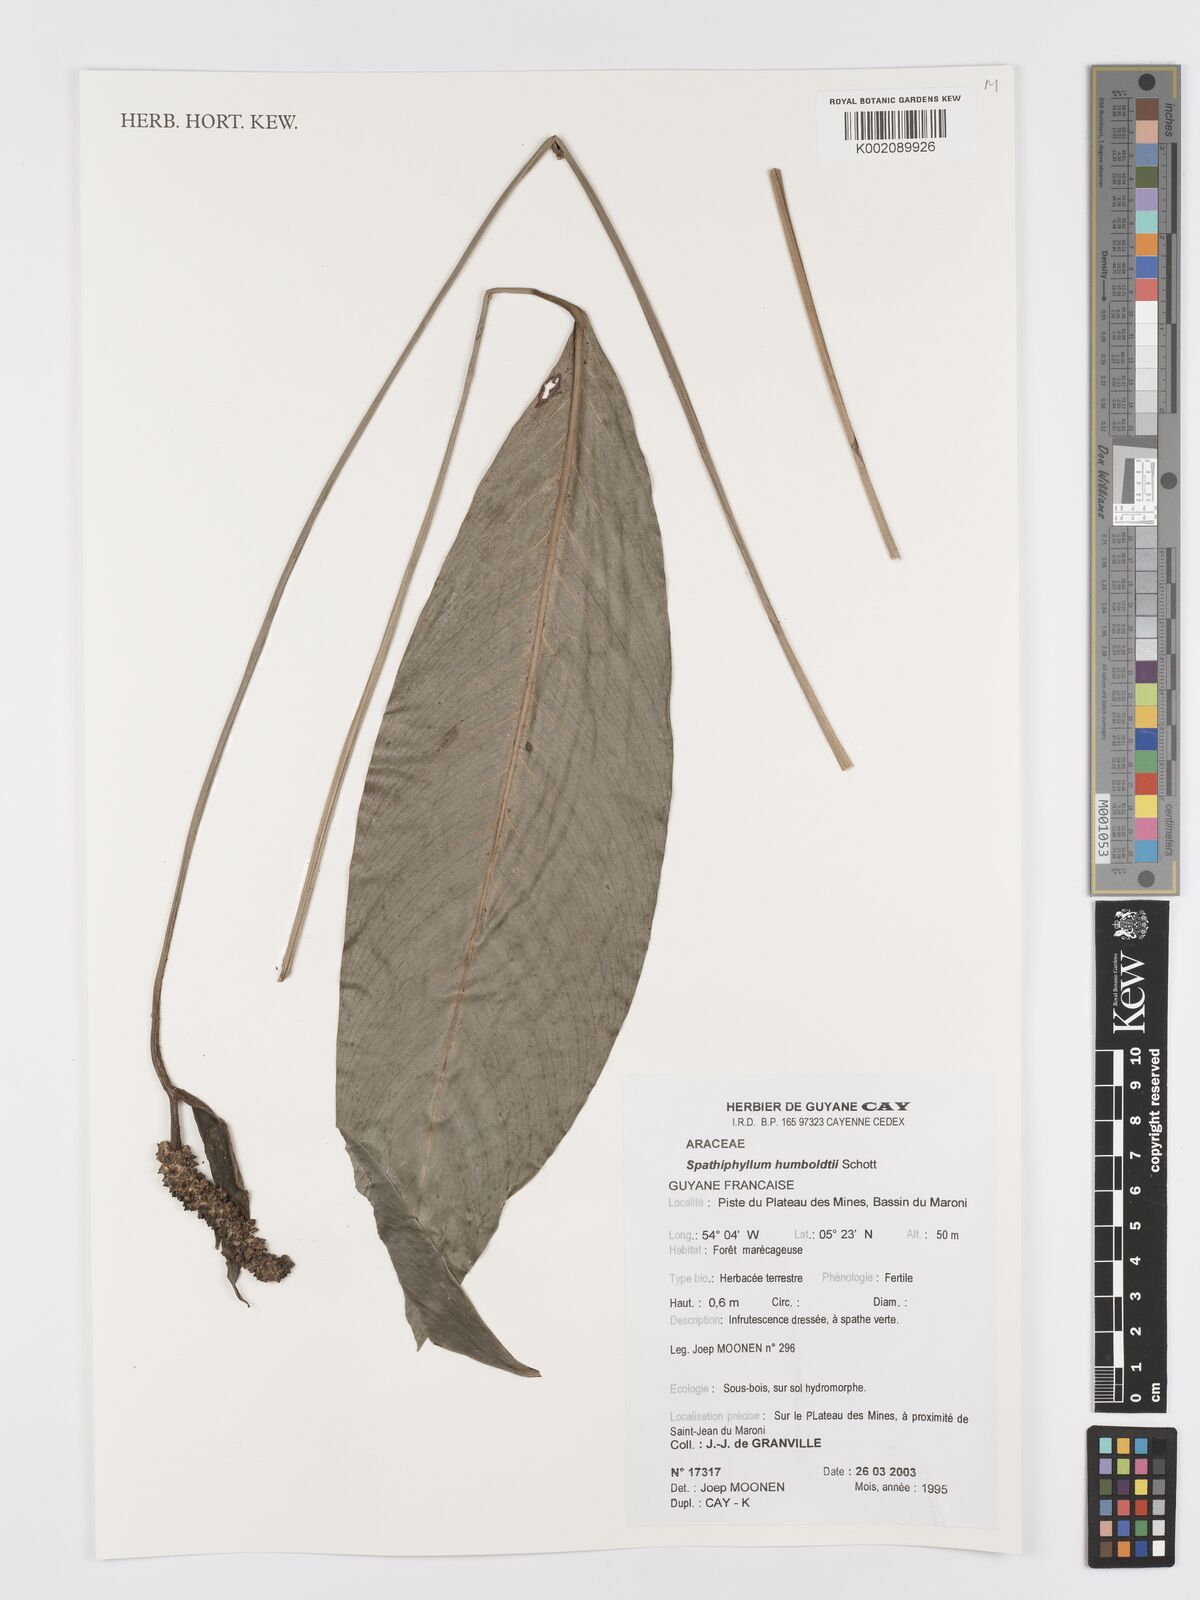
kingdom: Plantae
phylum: Tracheophyta
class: Liliopsida
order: Alismatales
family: Araceae
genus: Spathiphyllum
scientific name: Spathiphyllum humboldtii
